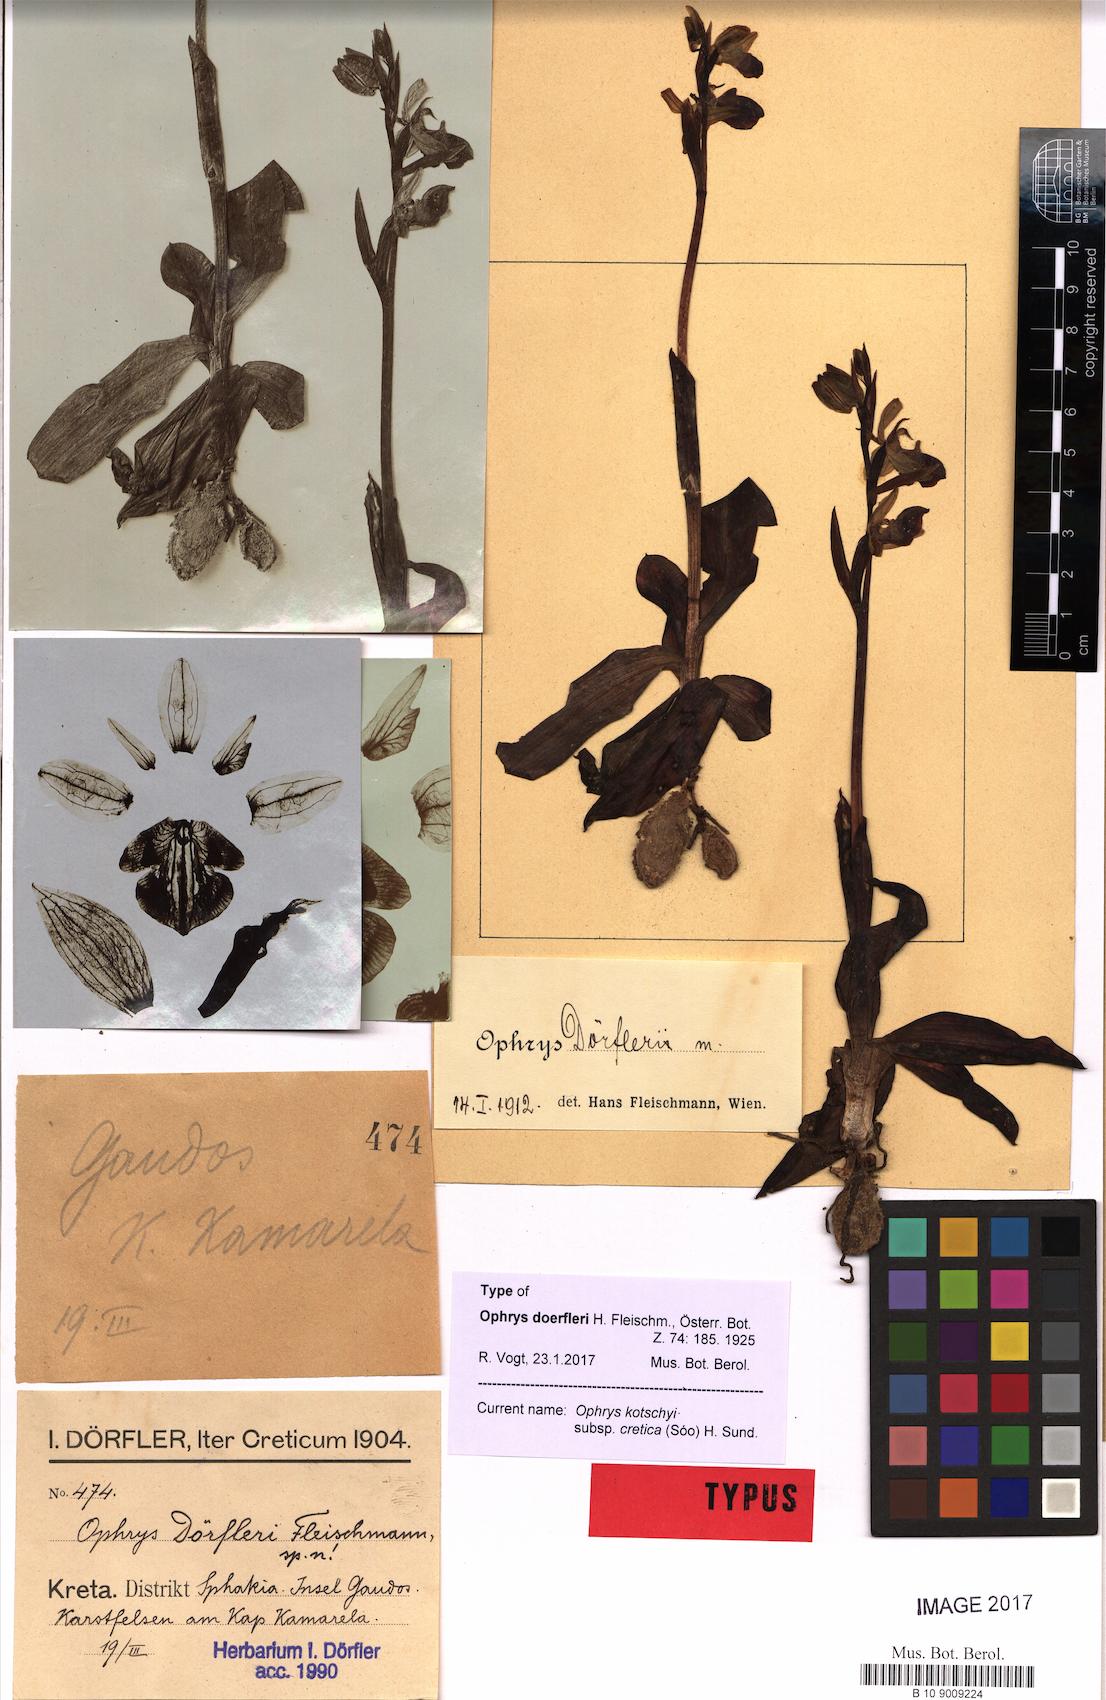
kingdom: Plantae
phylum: Tracheophyta
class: Liliopsida
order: Asparagales
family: Orchidaceae
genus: Ophrys
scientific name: Ophrys cretica
